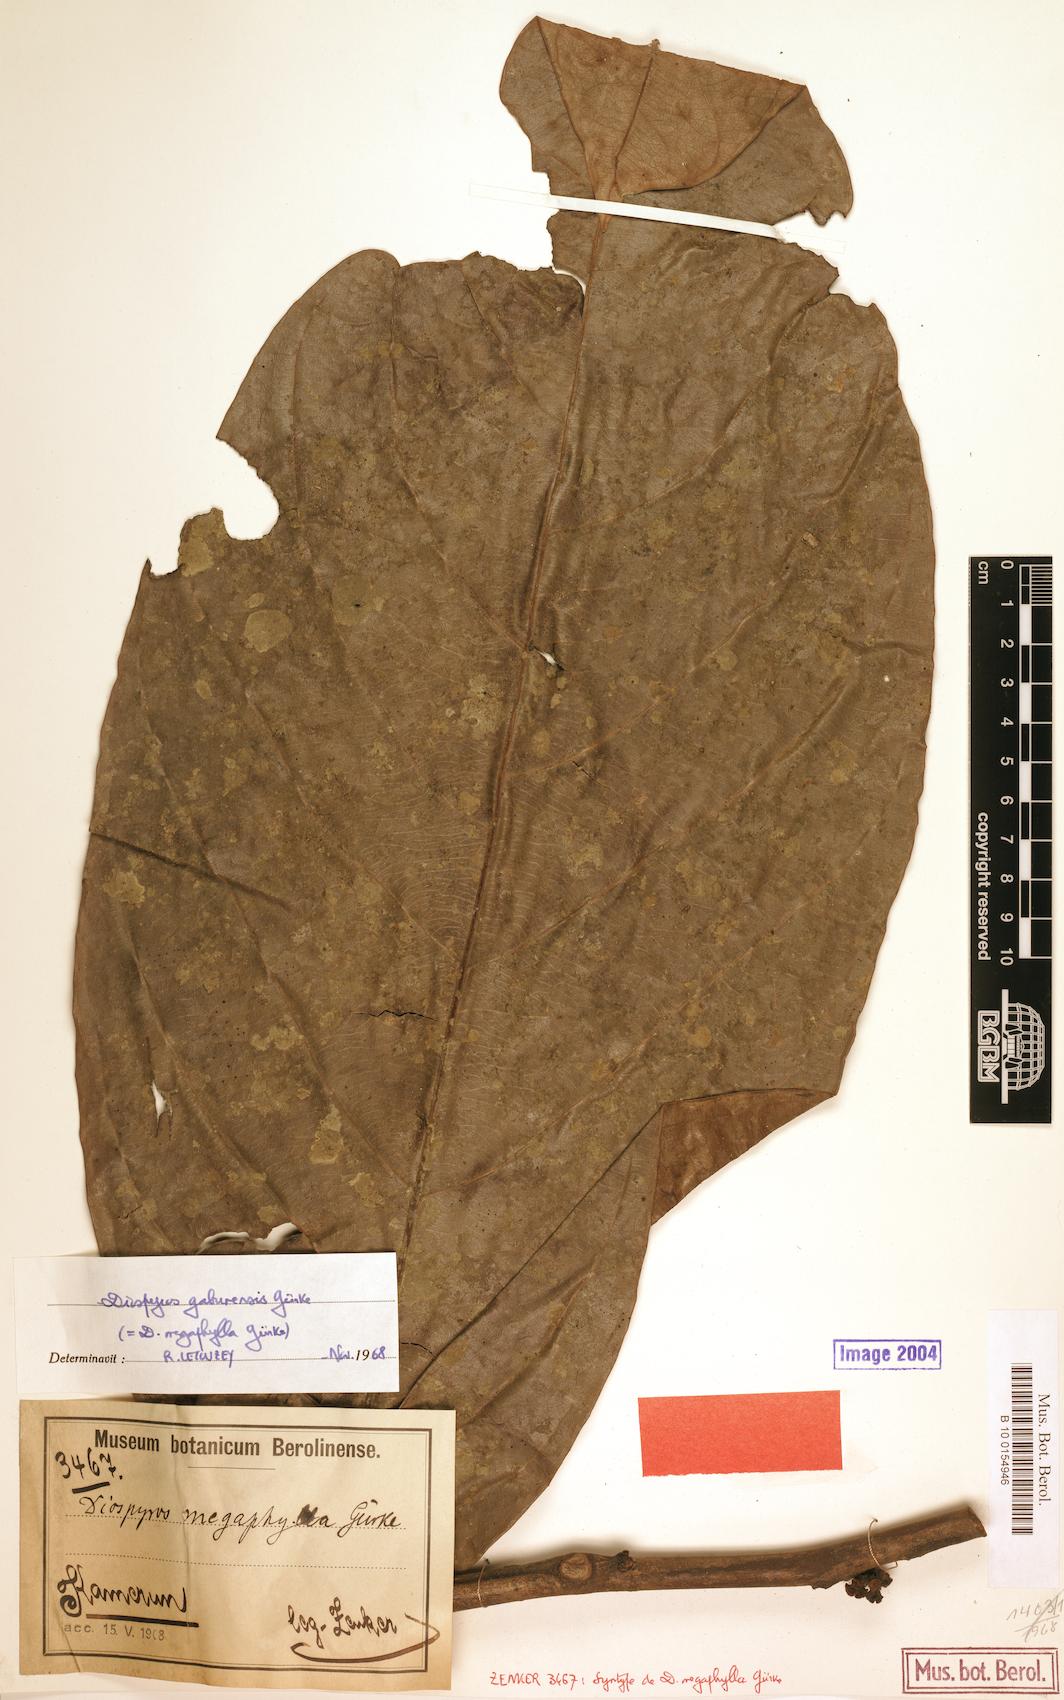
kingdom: Plantae
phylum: Tracheophyta
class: Magnoliopsida
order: Ericales
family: Ebenaceae
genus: Diospyros
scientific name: Diospyros gabunensis
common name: Flint bark tree
